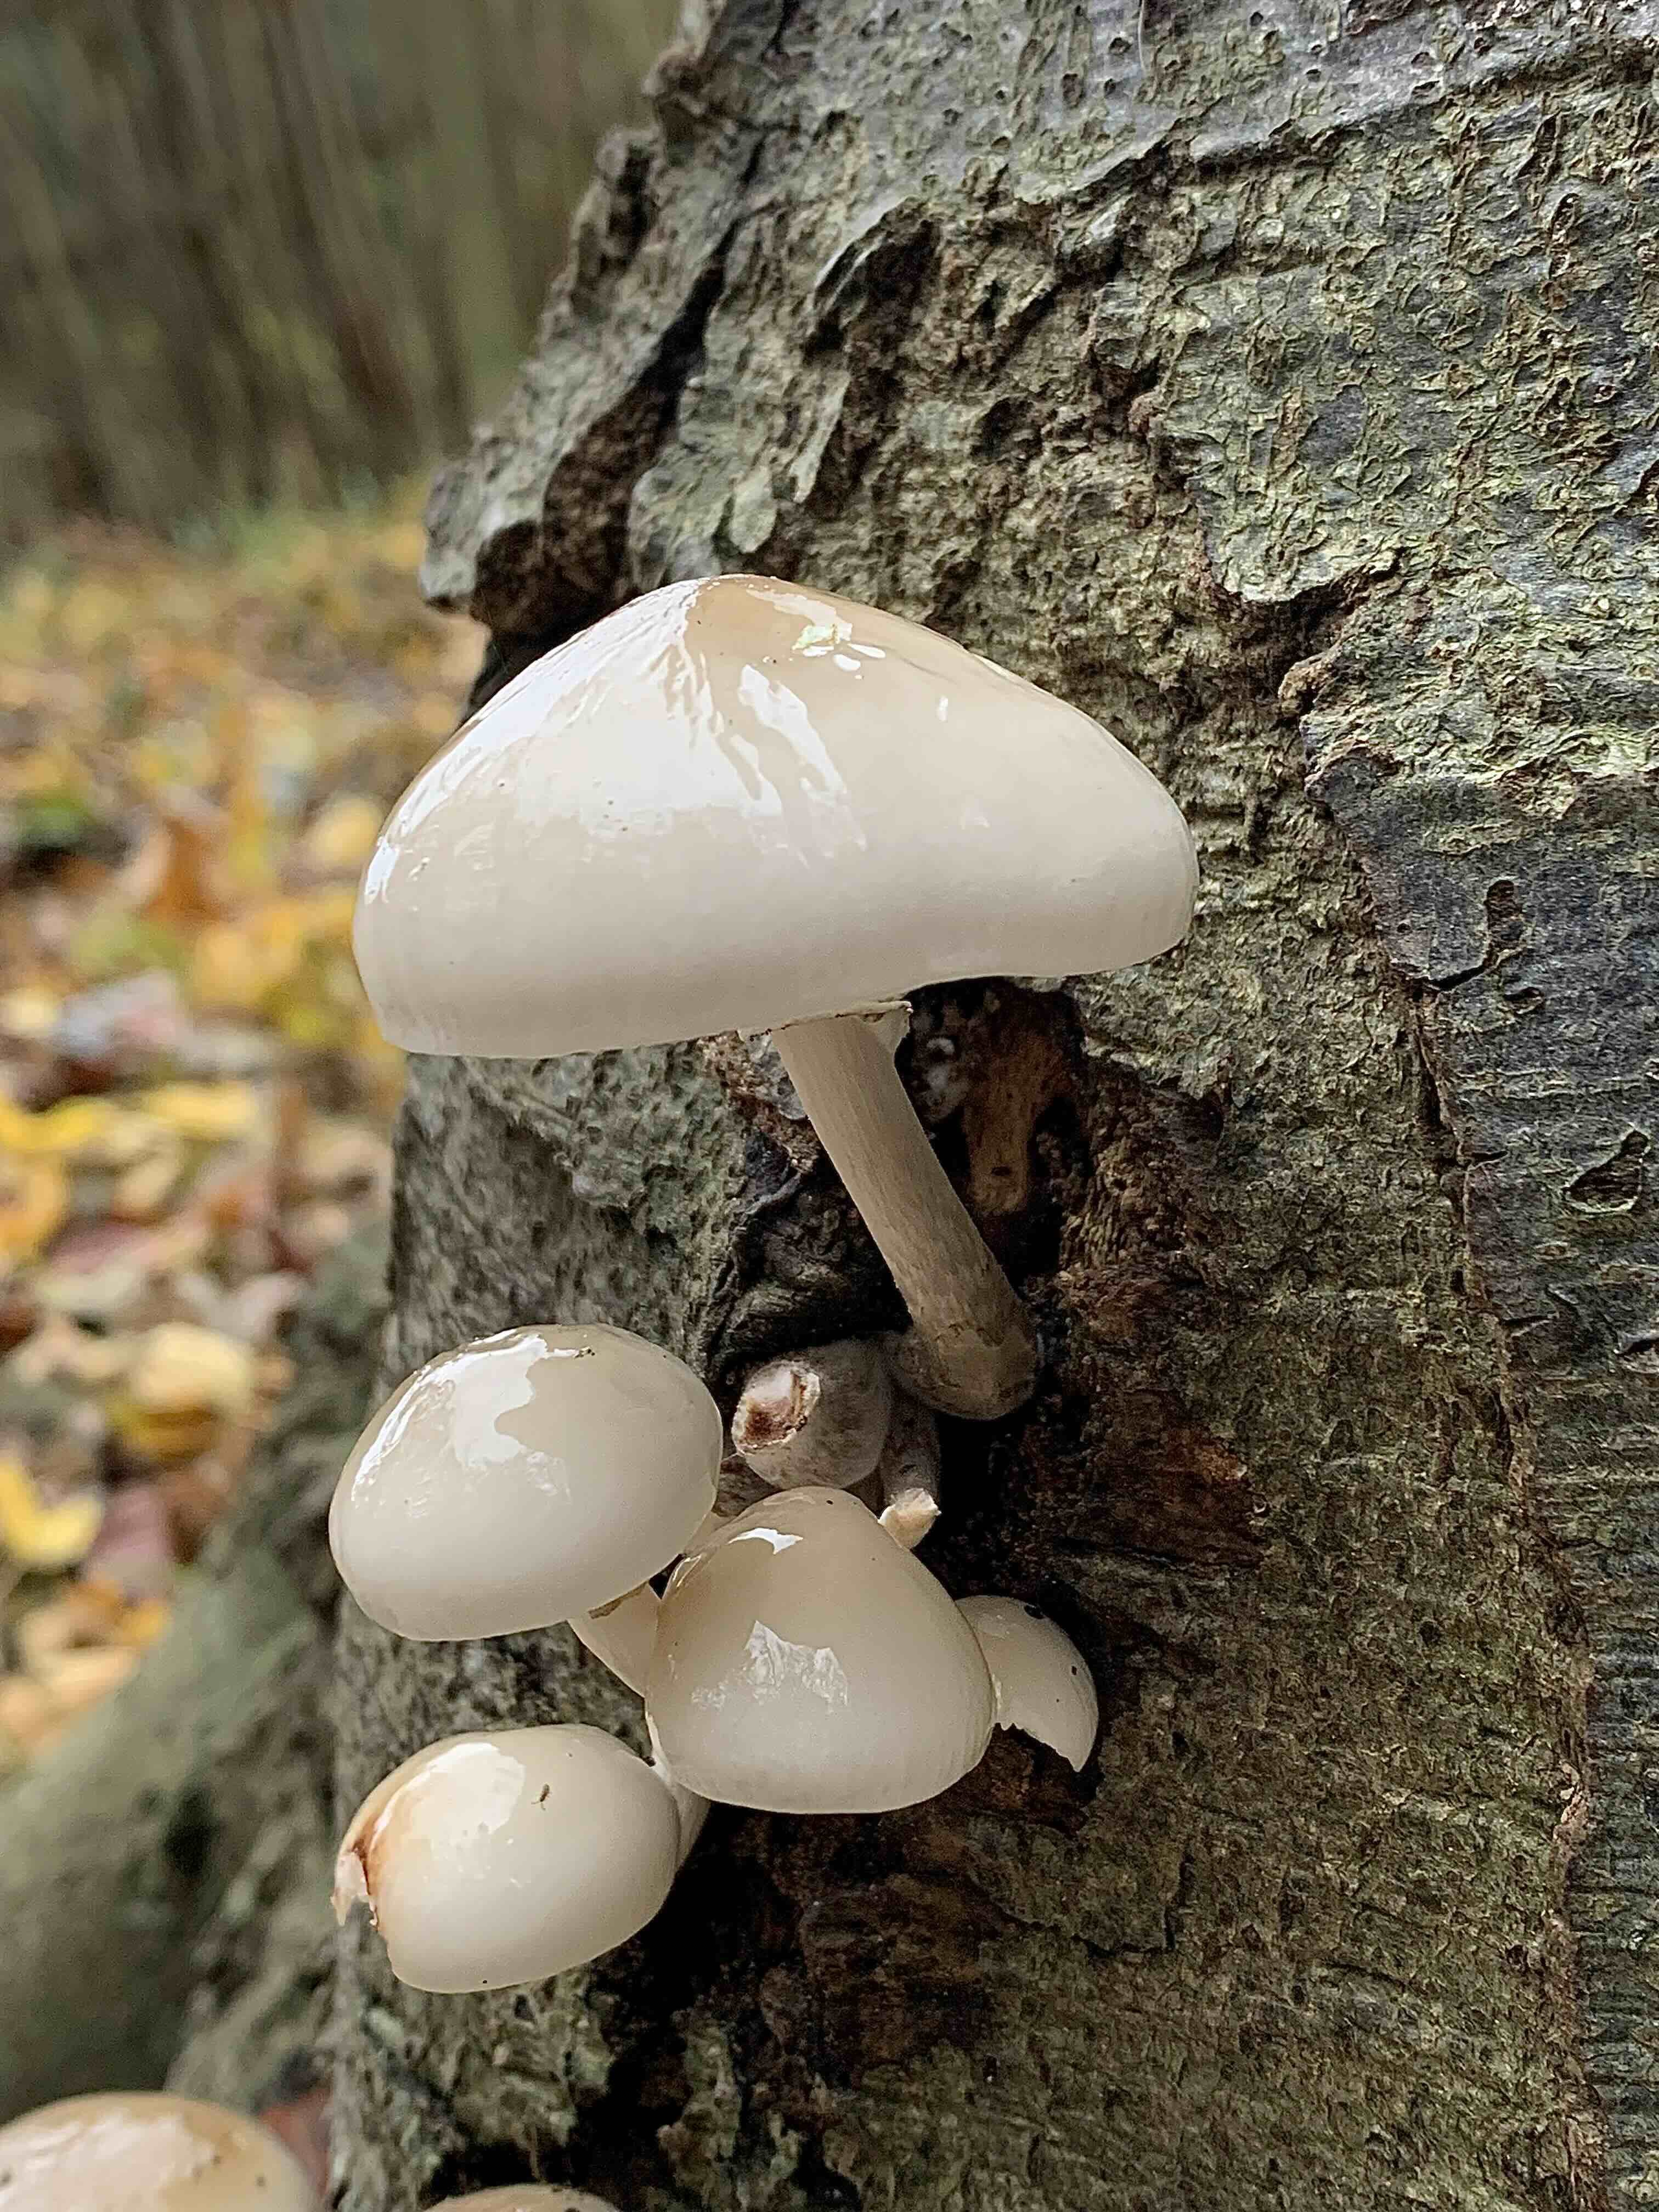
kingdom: Fungi
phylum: Basidiomycota
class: Agaricomycetes
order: Agaricales
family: Physalacriaceae
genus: Mucidula
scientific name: Mucidula mucida
